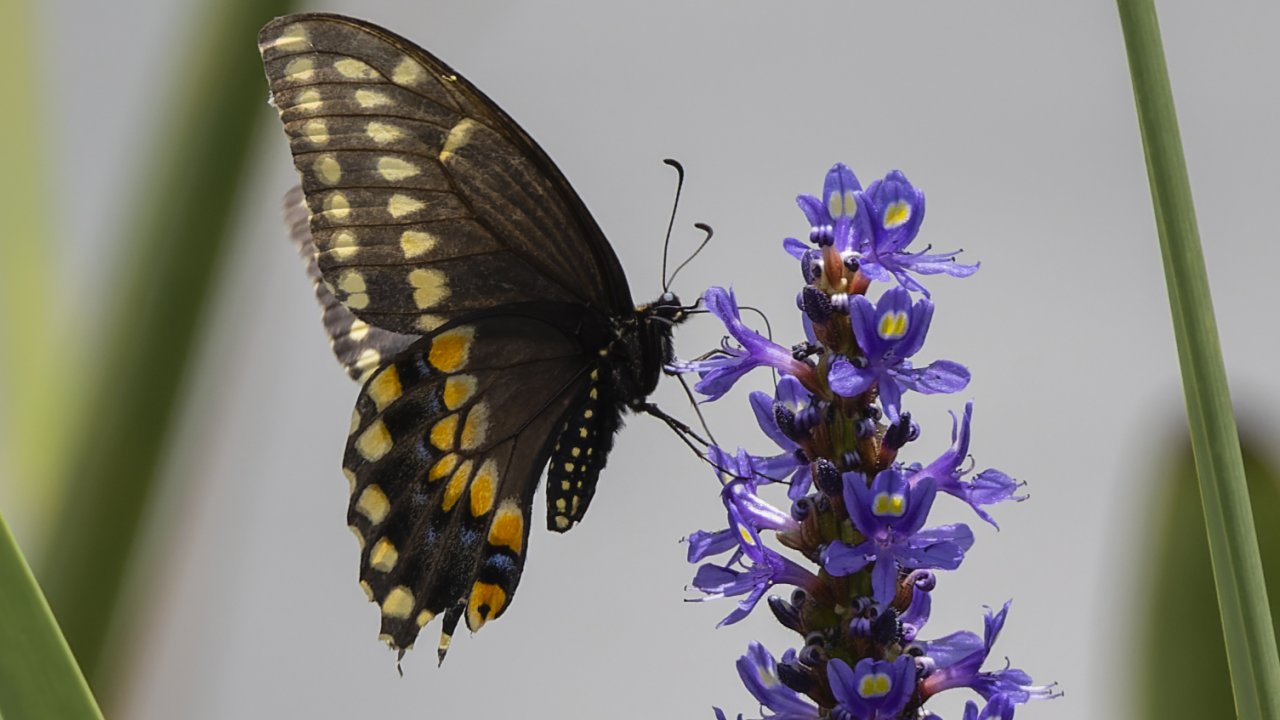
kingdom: Animalia
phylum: Arthropoda
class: Insecta
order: Lepidoptera
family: Papilionidae
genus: Papilio
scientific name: Papilio polyxenes
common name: Black Swallowtail
